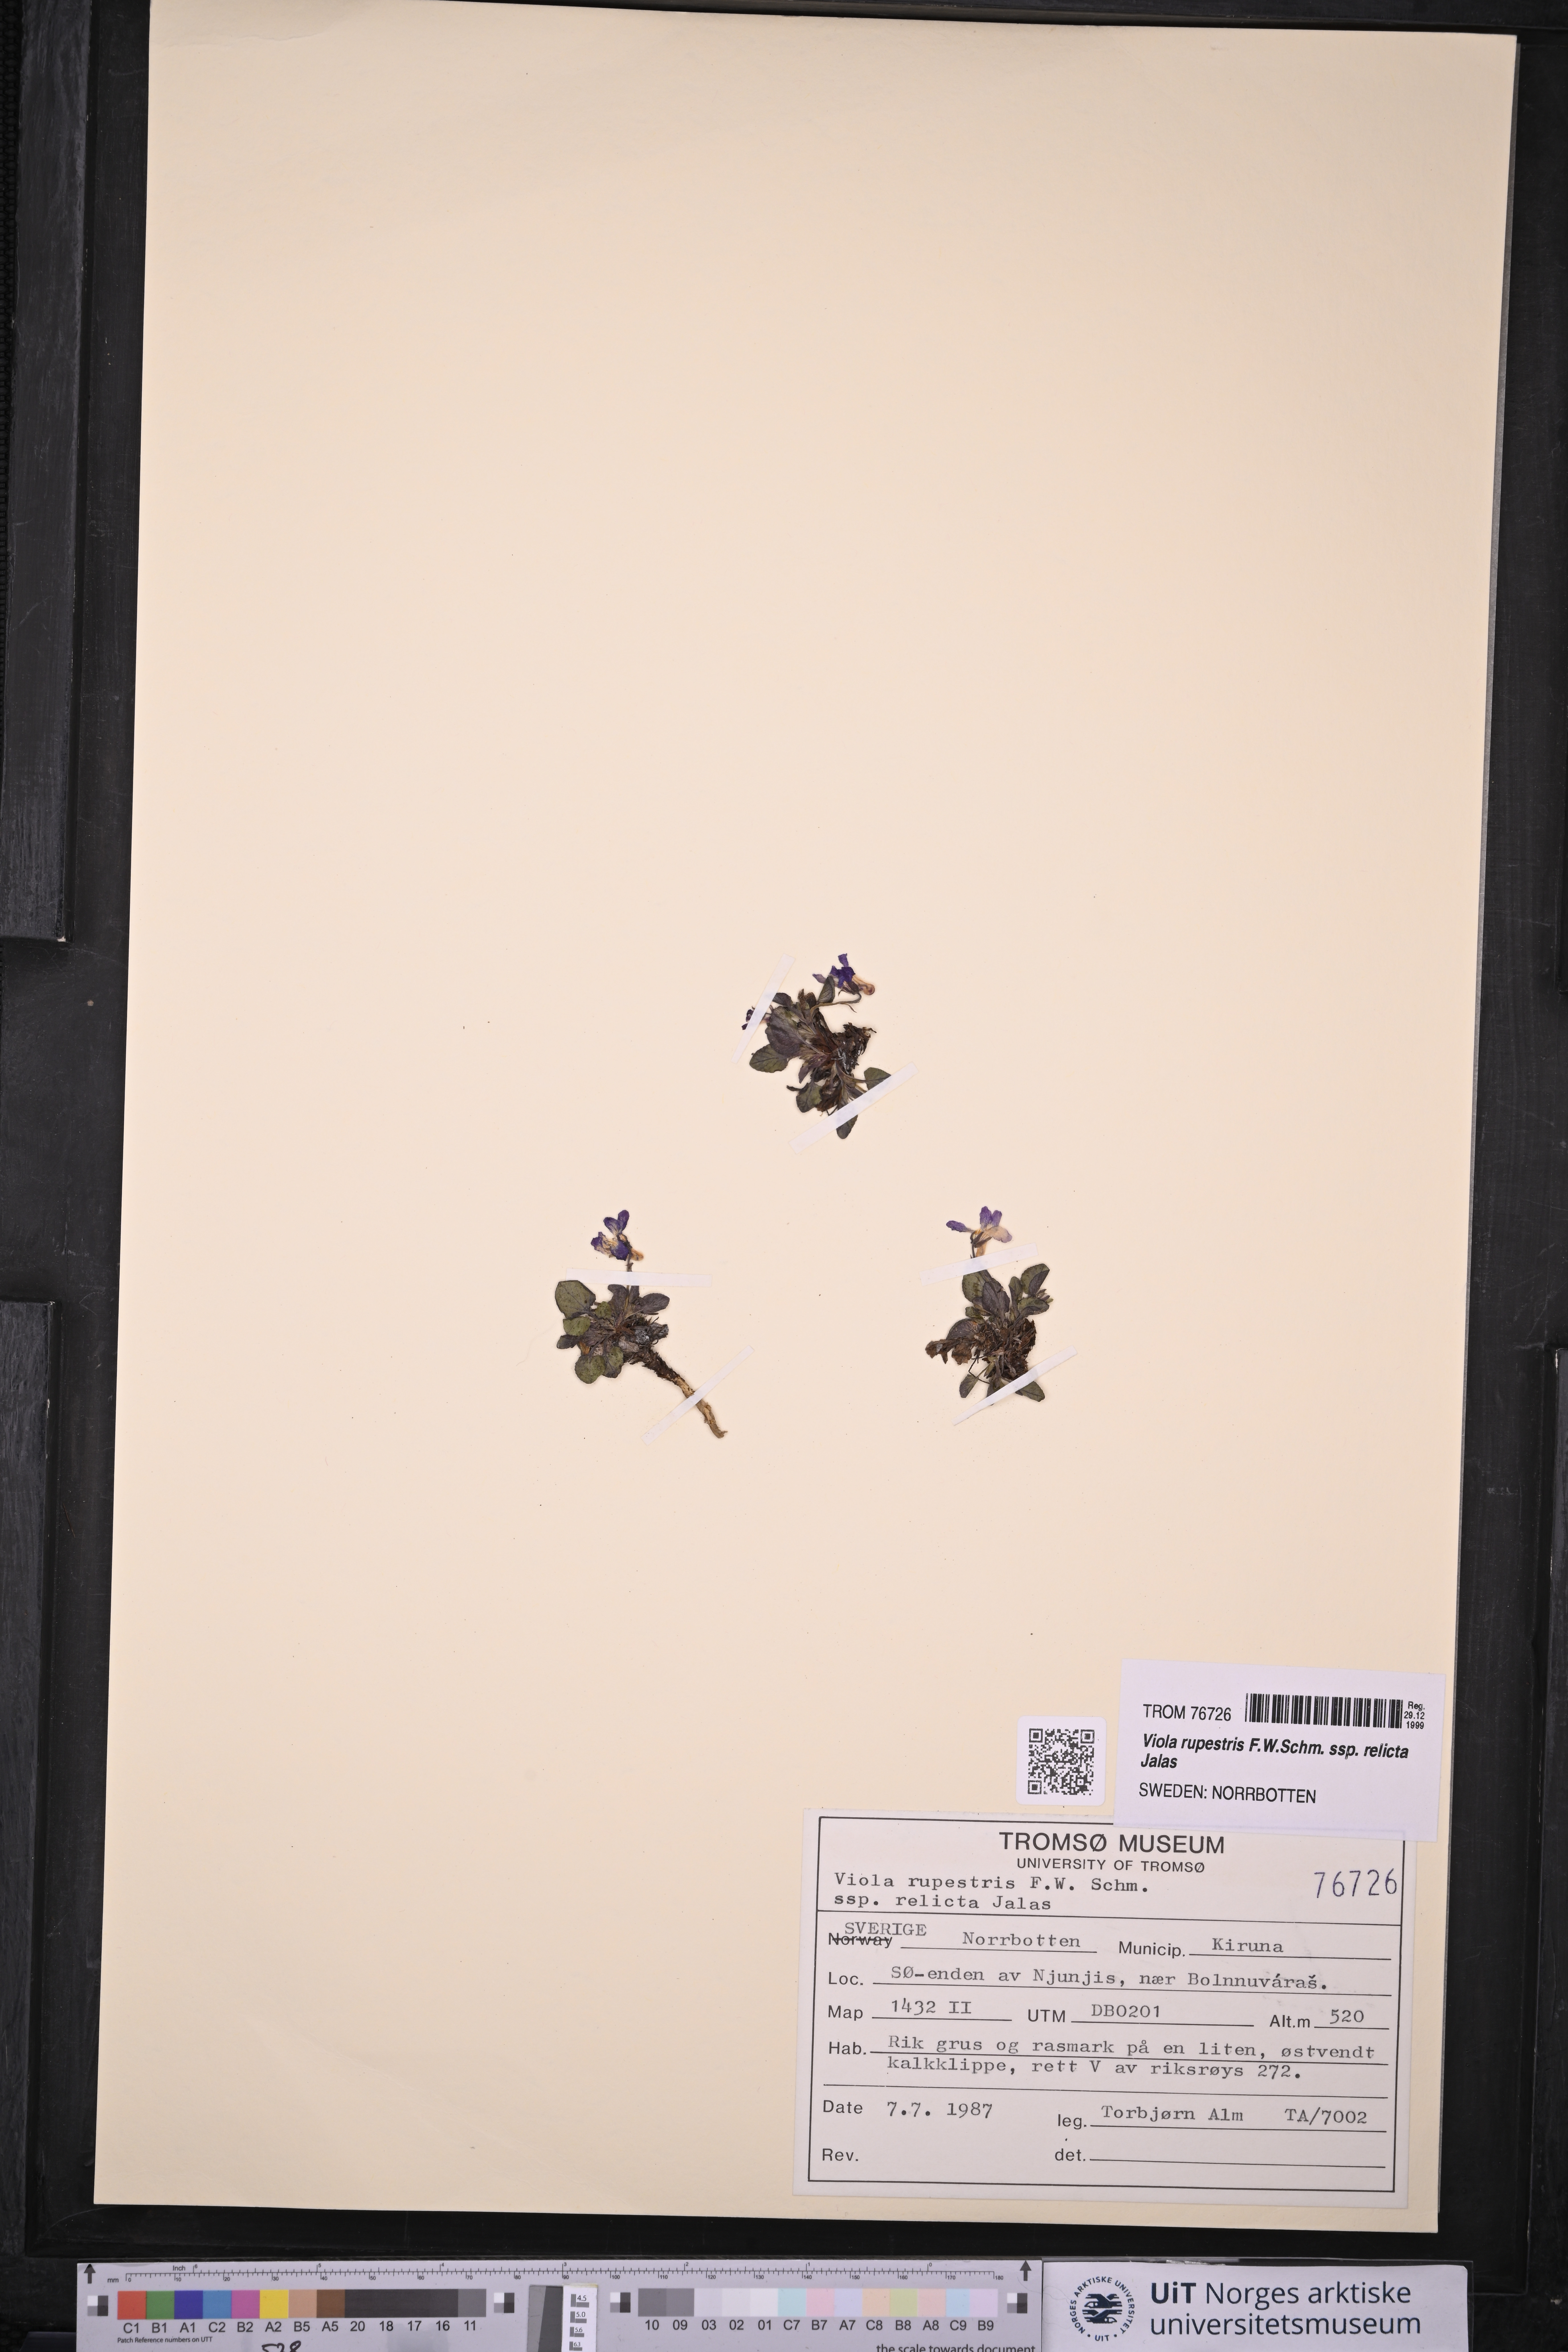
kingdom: Plantae
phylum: Tracheophyta
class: Magnoliopsida
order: Malpighiales
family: Violaceae
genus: Viola
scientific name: Viola rupestris
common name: Teesdale violet
